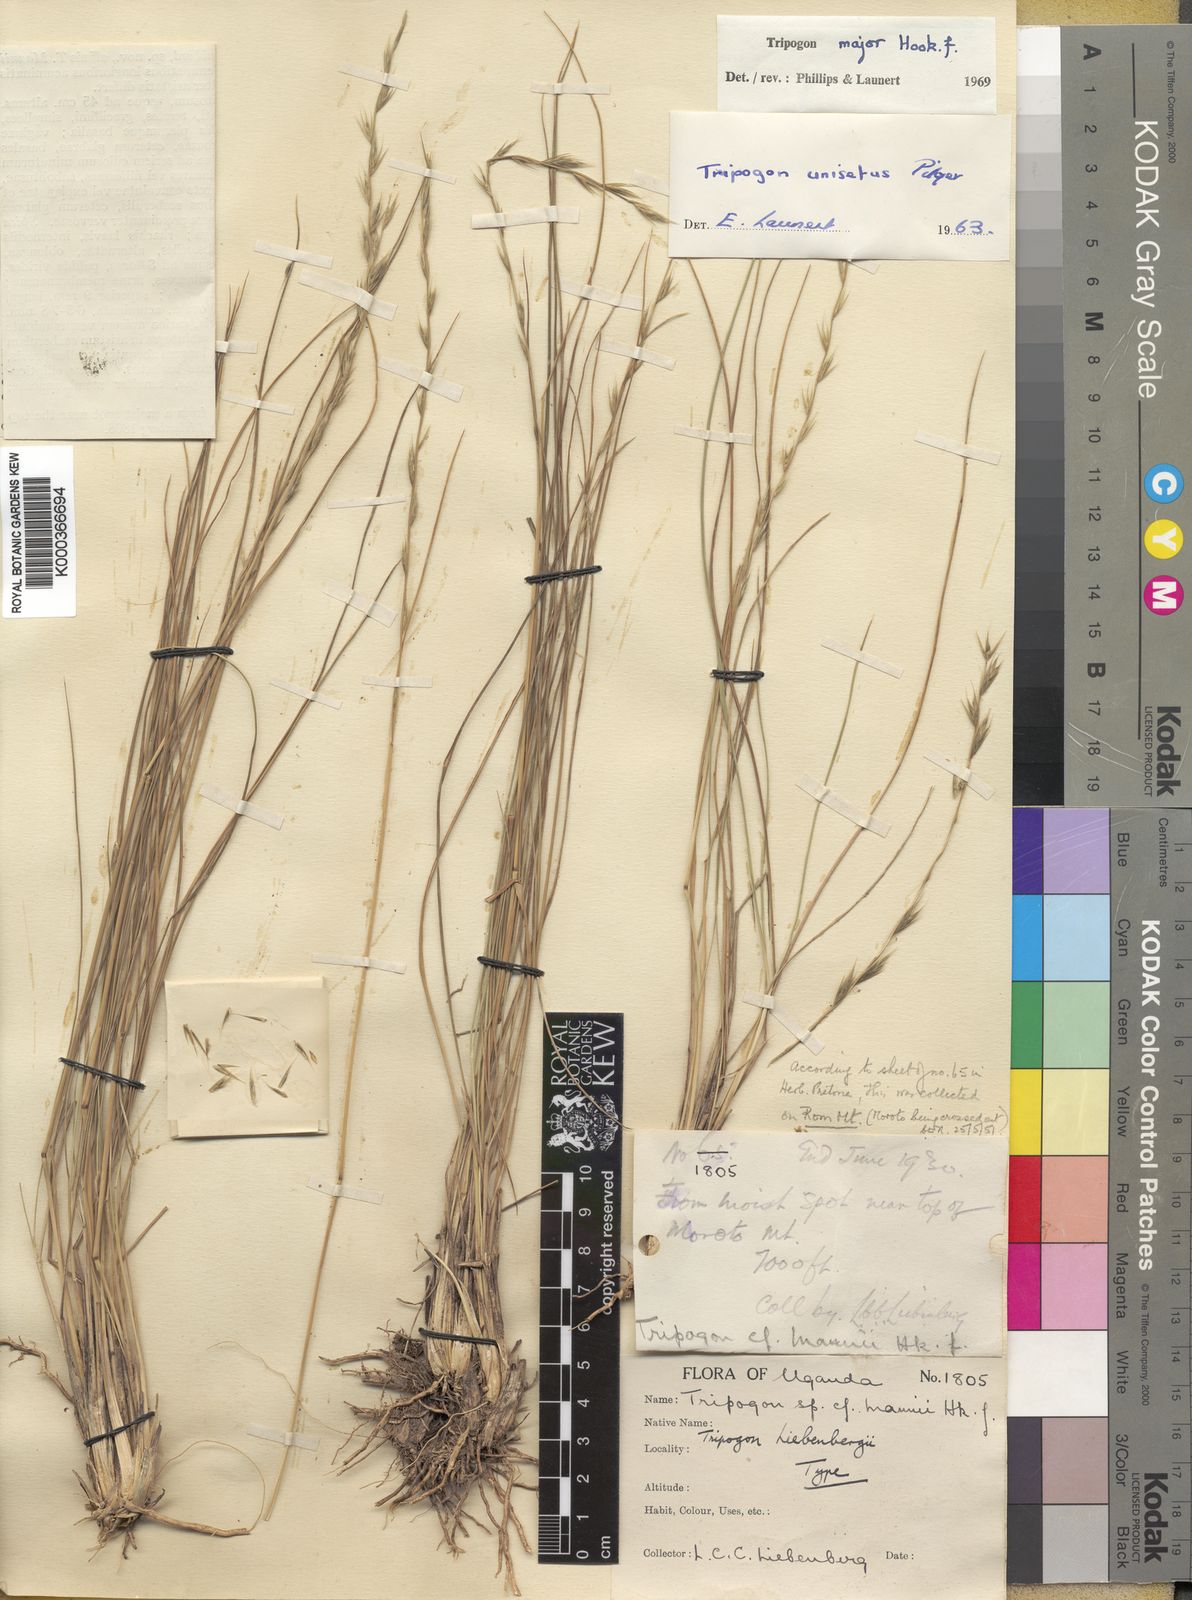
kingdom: Plantae
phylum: Tracheophyta
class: Liliopsida
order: Poales
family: Poaceae
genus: Tripogon
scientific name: Tripogon major
